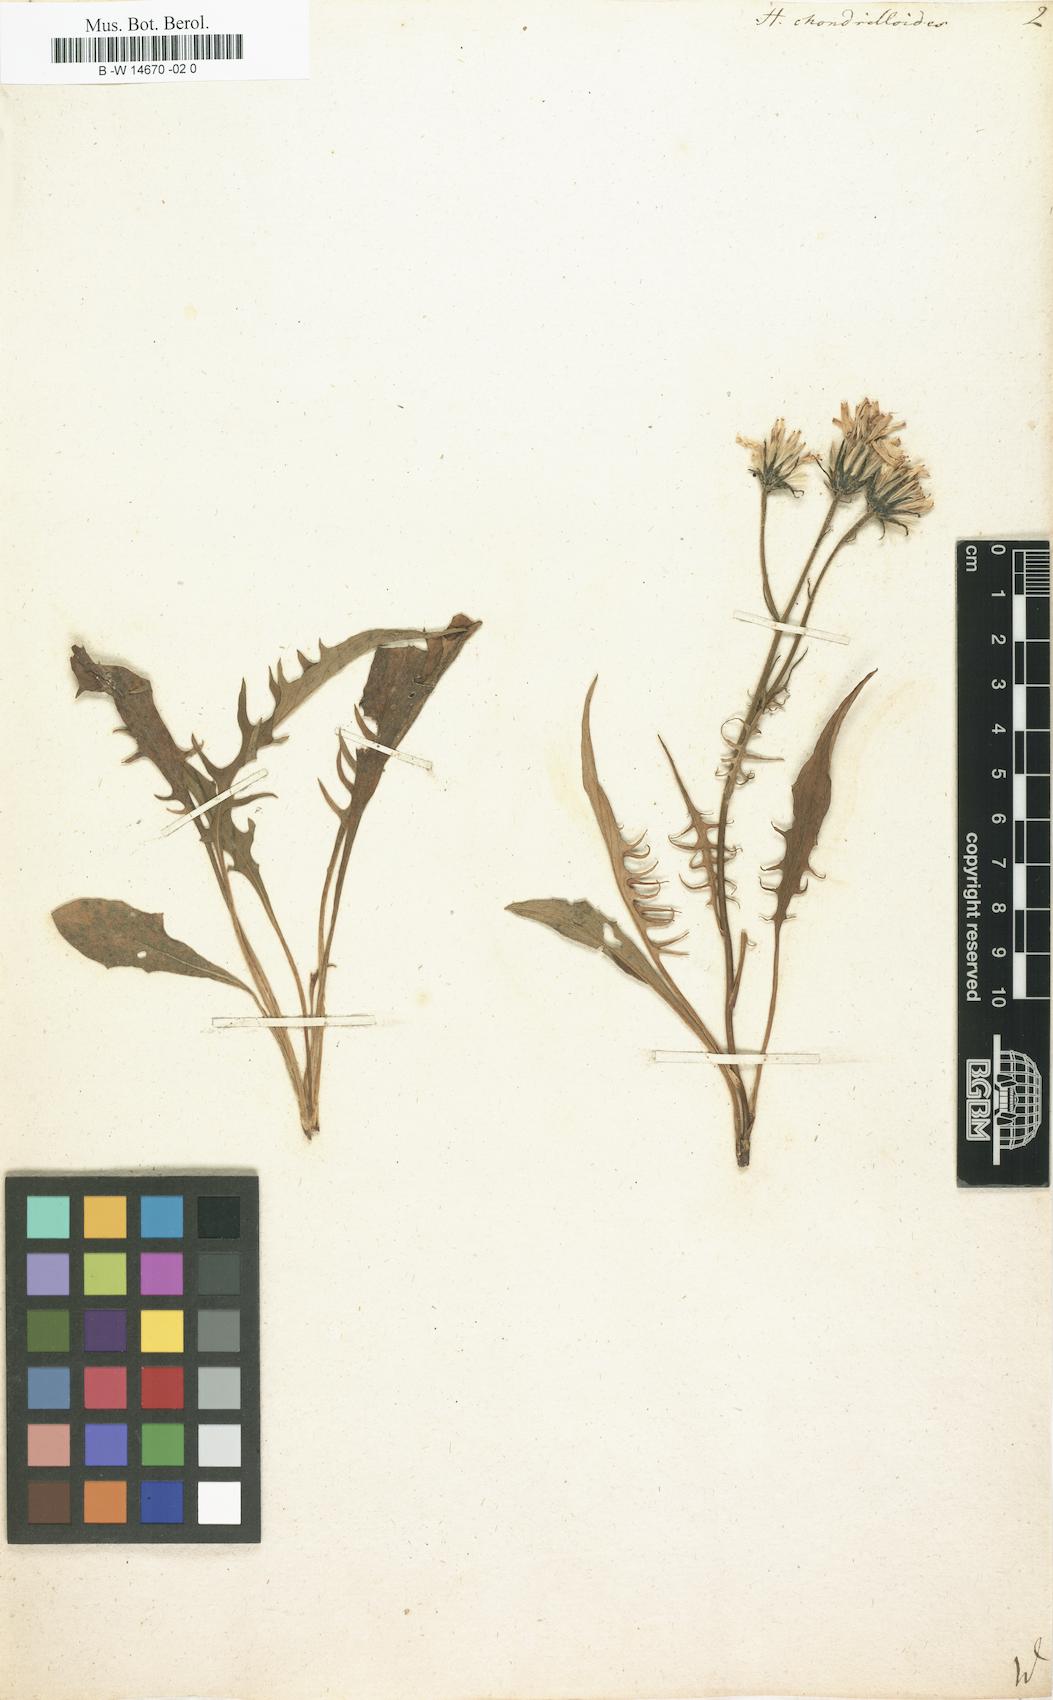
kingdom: Plantae
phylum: Tracheophyta
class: Magnoliopsida
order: Asterales
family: Asteraceae
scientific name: Asteraceae
